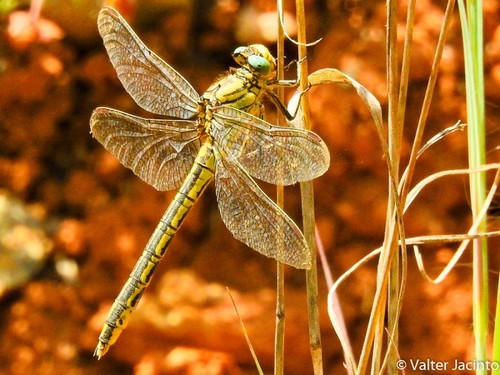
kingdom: Animalia
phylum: Arthropoda
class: Insecta
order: Odonata
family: Gomphidae
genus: Gomphus
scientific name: Gomphus pulchellus
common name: Western clubtail
